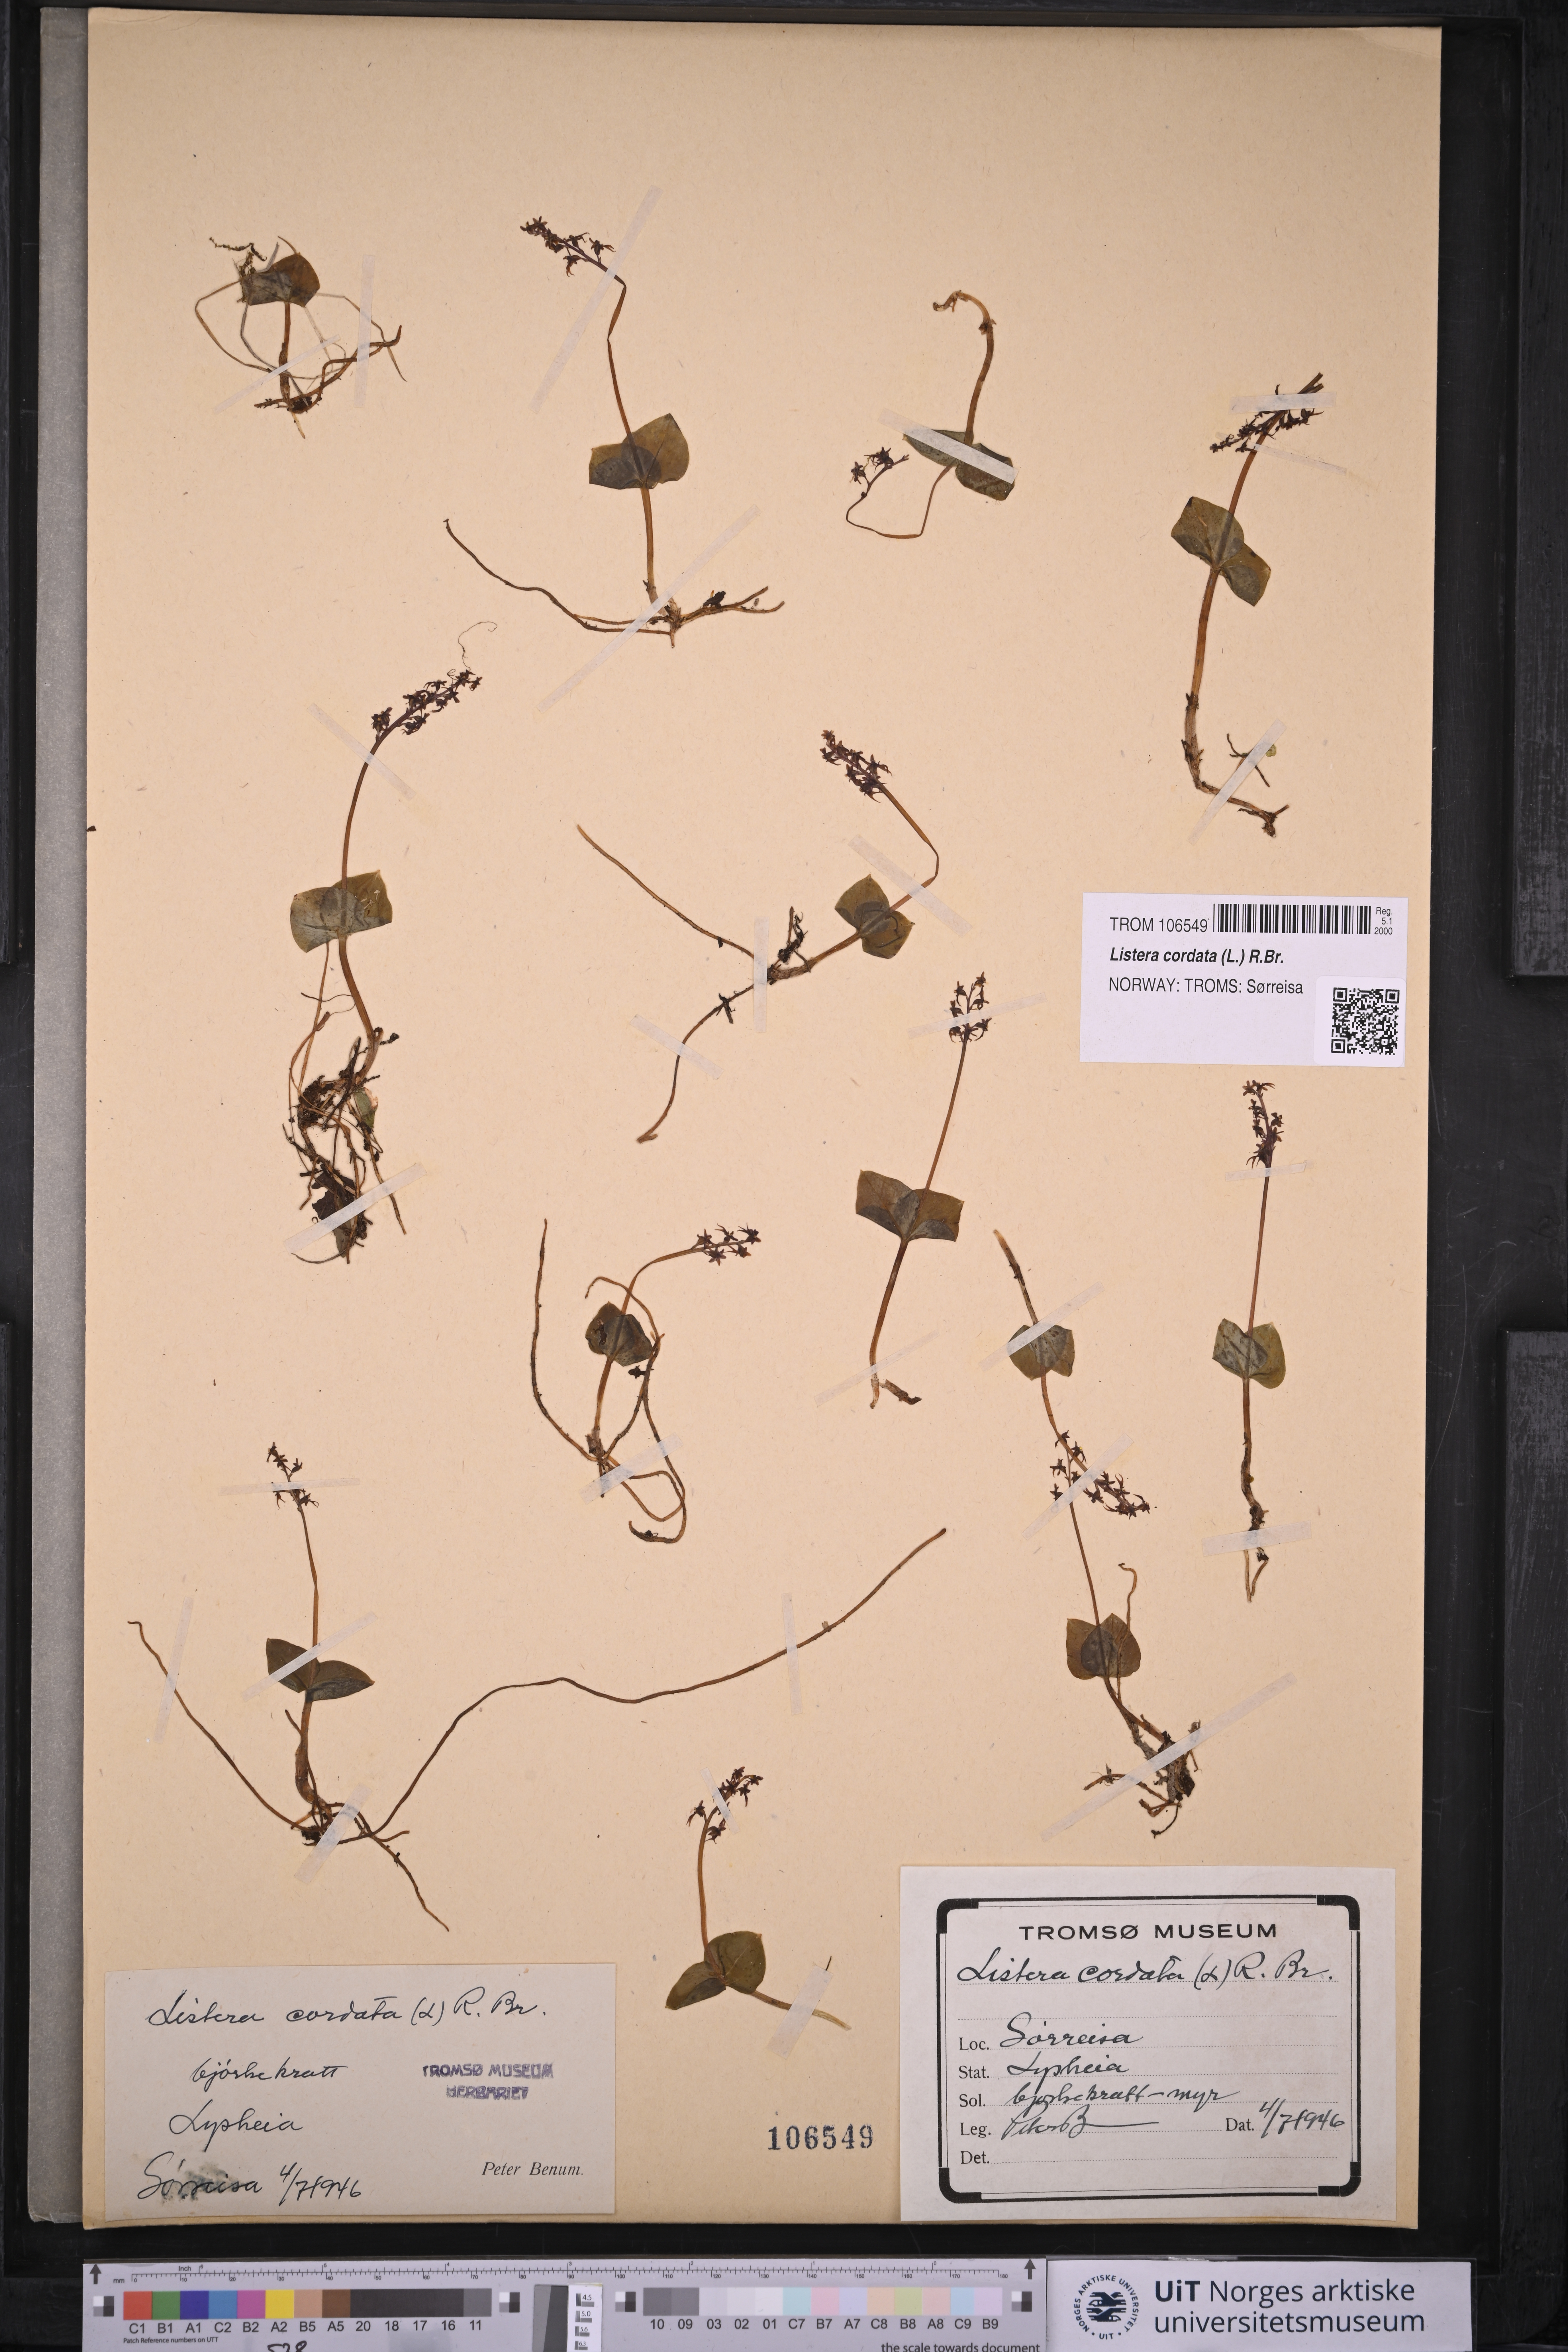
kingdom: Plantae
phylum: Tracheophyta
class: Liliopsida
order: Asparagales
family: Orchidaceae
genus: Neottia
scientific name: Neottia cordata
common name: Lesser twayblade
